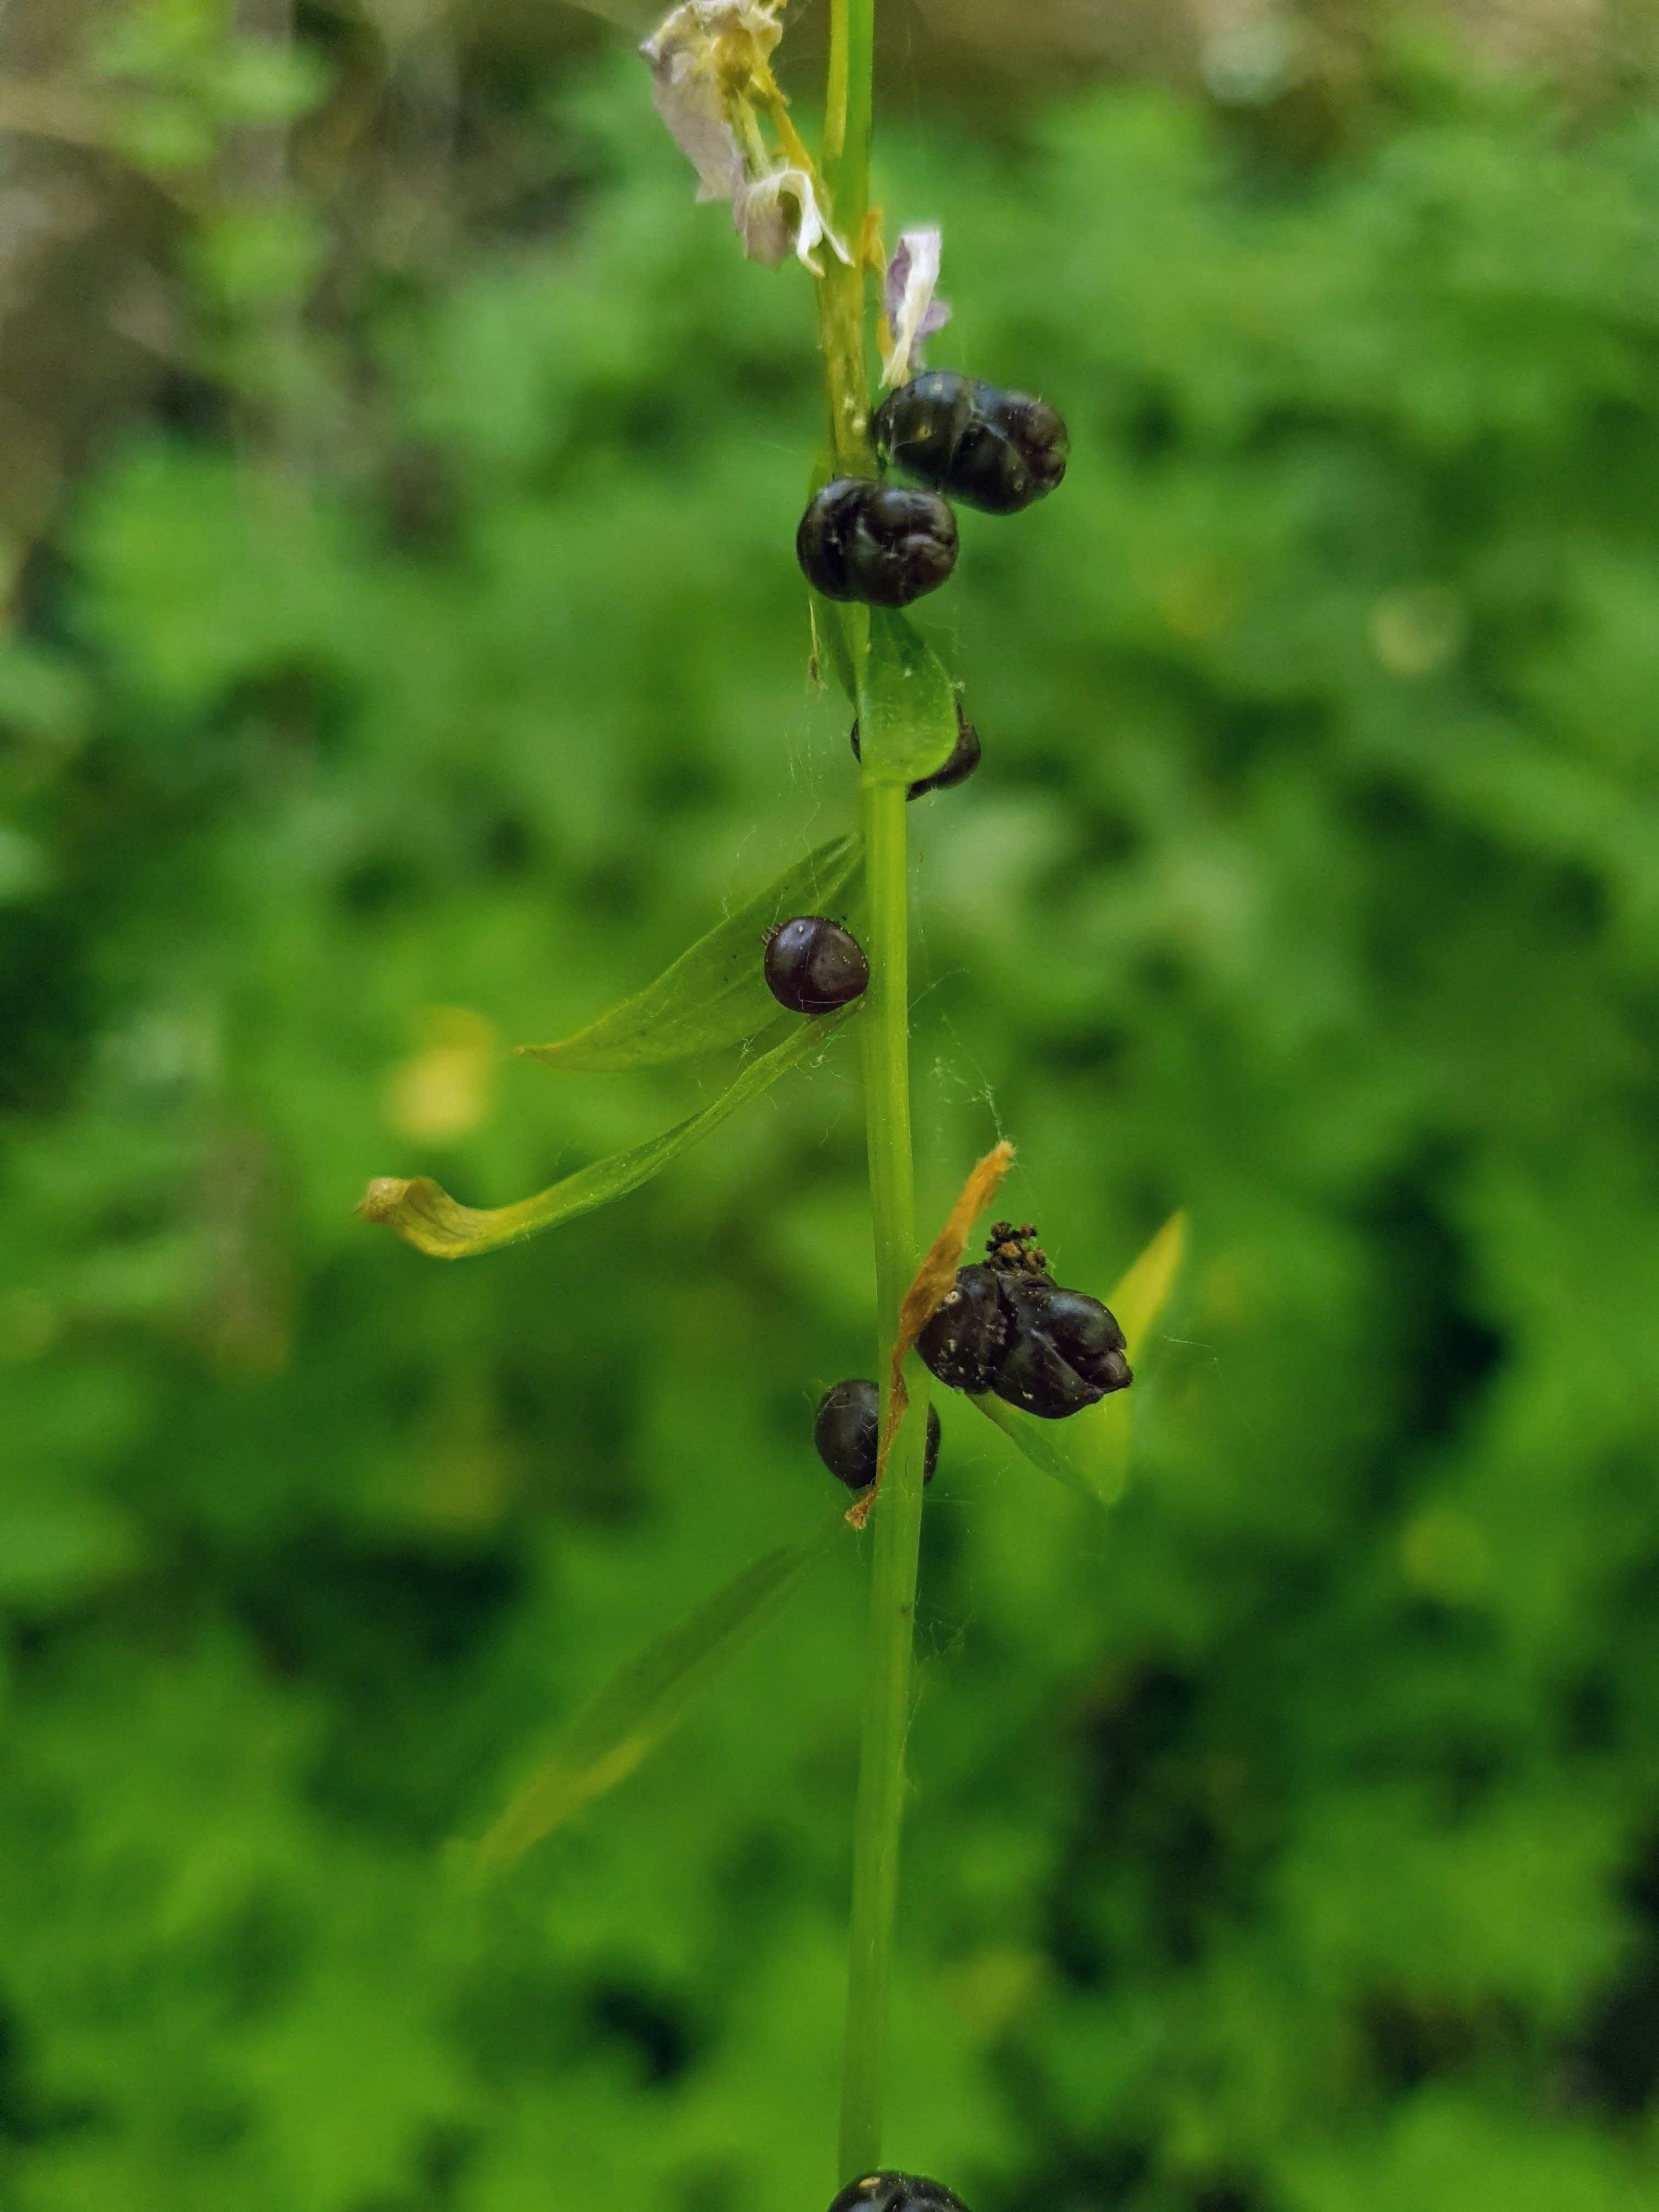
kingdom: Plantae
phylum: Tracheophyta
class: Magnoliopsida
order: Brassicales
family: Brassicaceae
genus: Cardamine
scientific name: Cardamine bulbifera
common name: Tandrod
